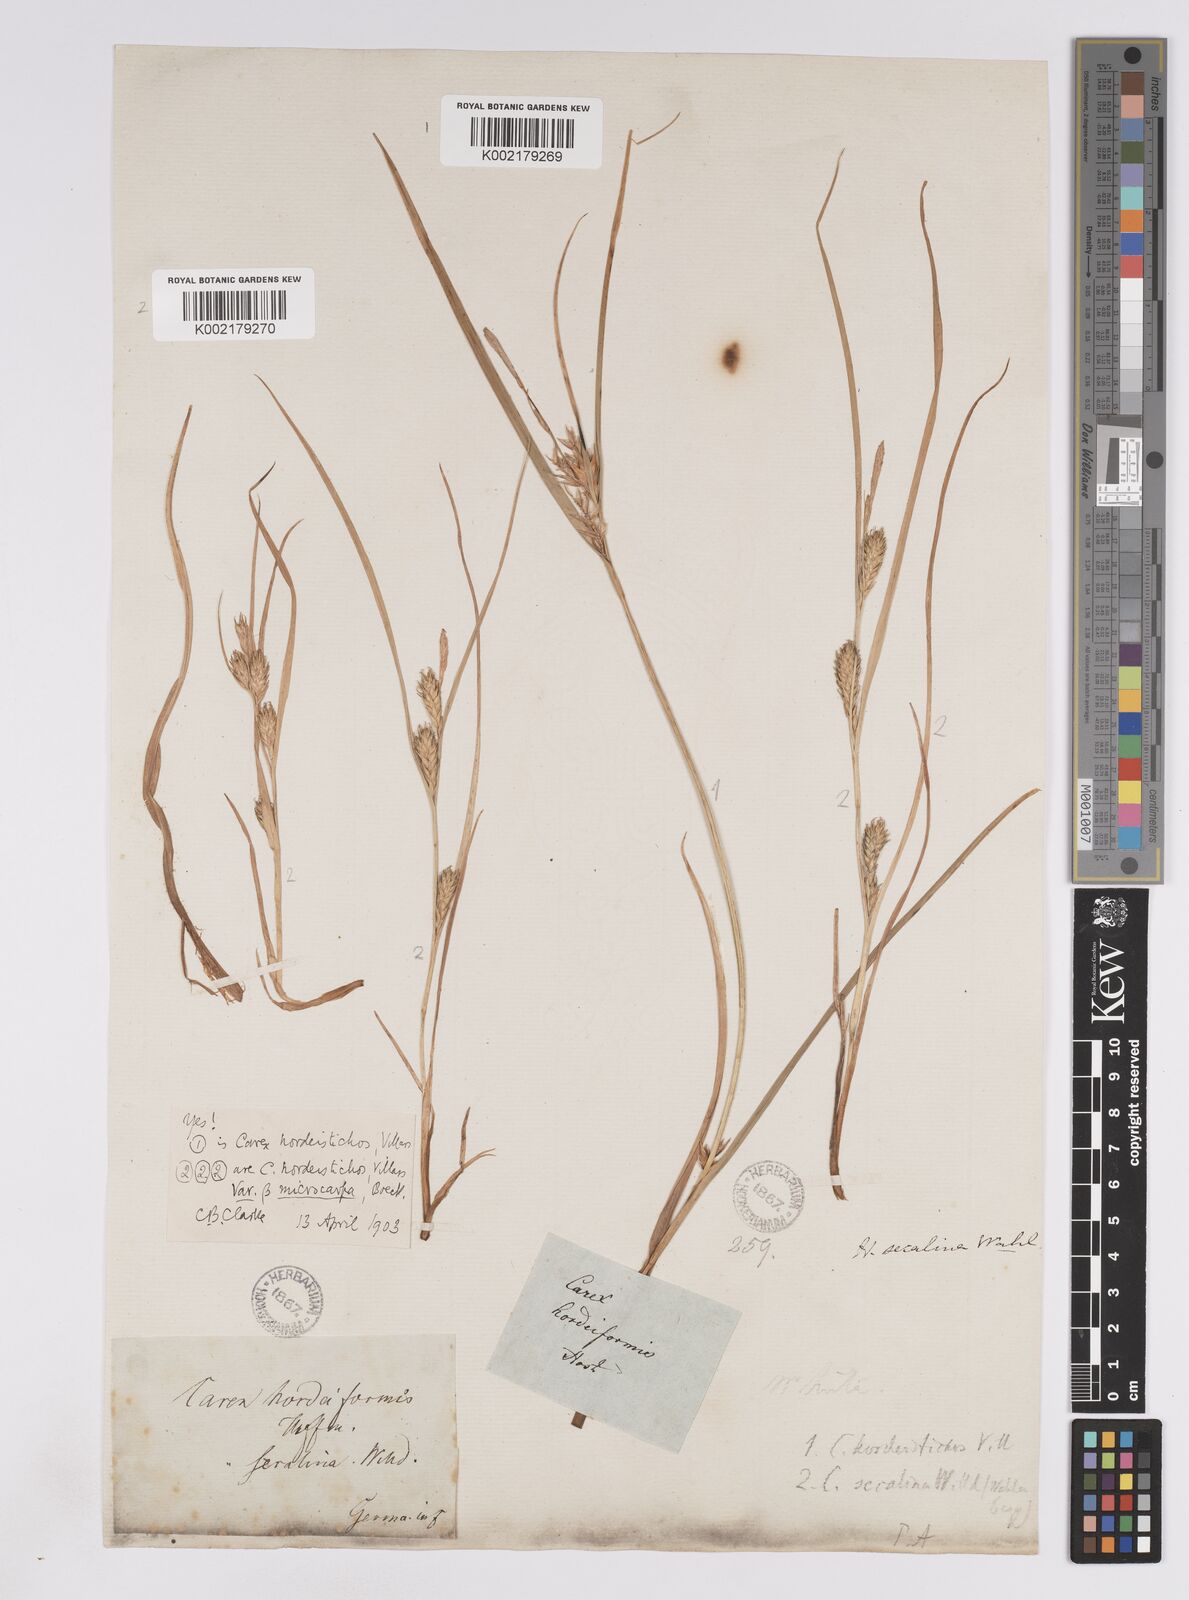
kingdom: Plantae
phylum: Tracheophyta
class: Liliopsida
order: Poales
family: Cyperaceae
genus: Carex
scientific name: Carex hordeistichos
